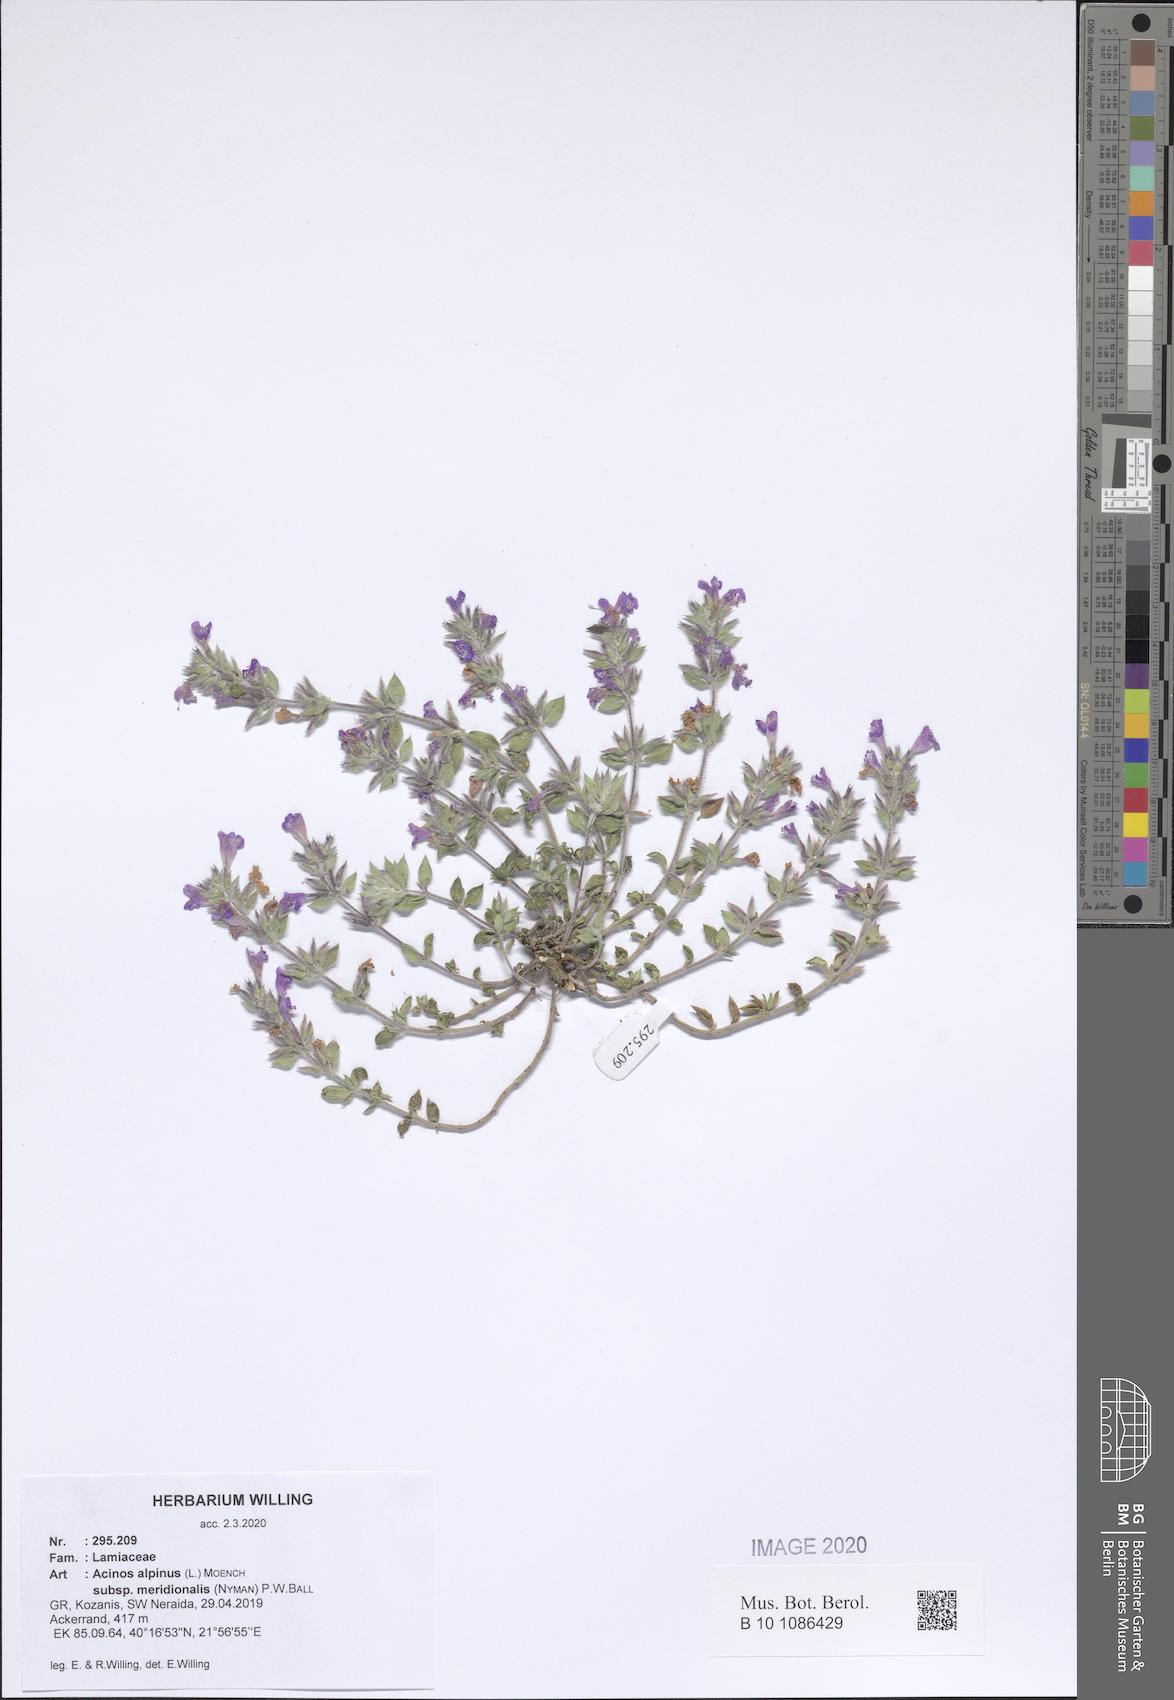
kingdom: Plantae
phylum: Tracheophyta
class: Magnoliopsida
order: Lamiales
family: Lamiaceae
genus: Clinopodium
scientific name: Clinopodium alpinum
